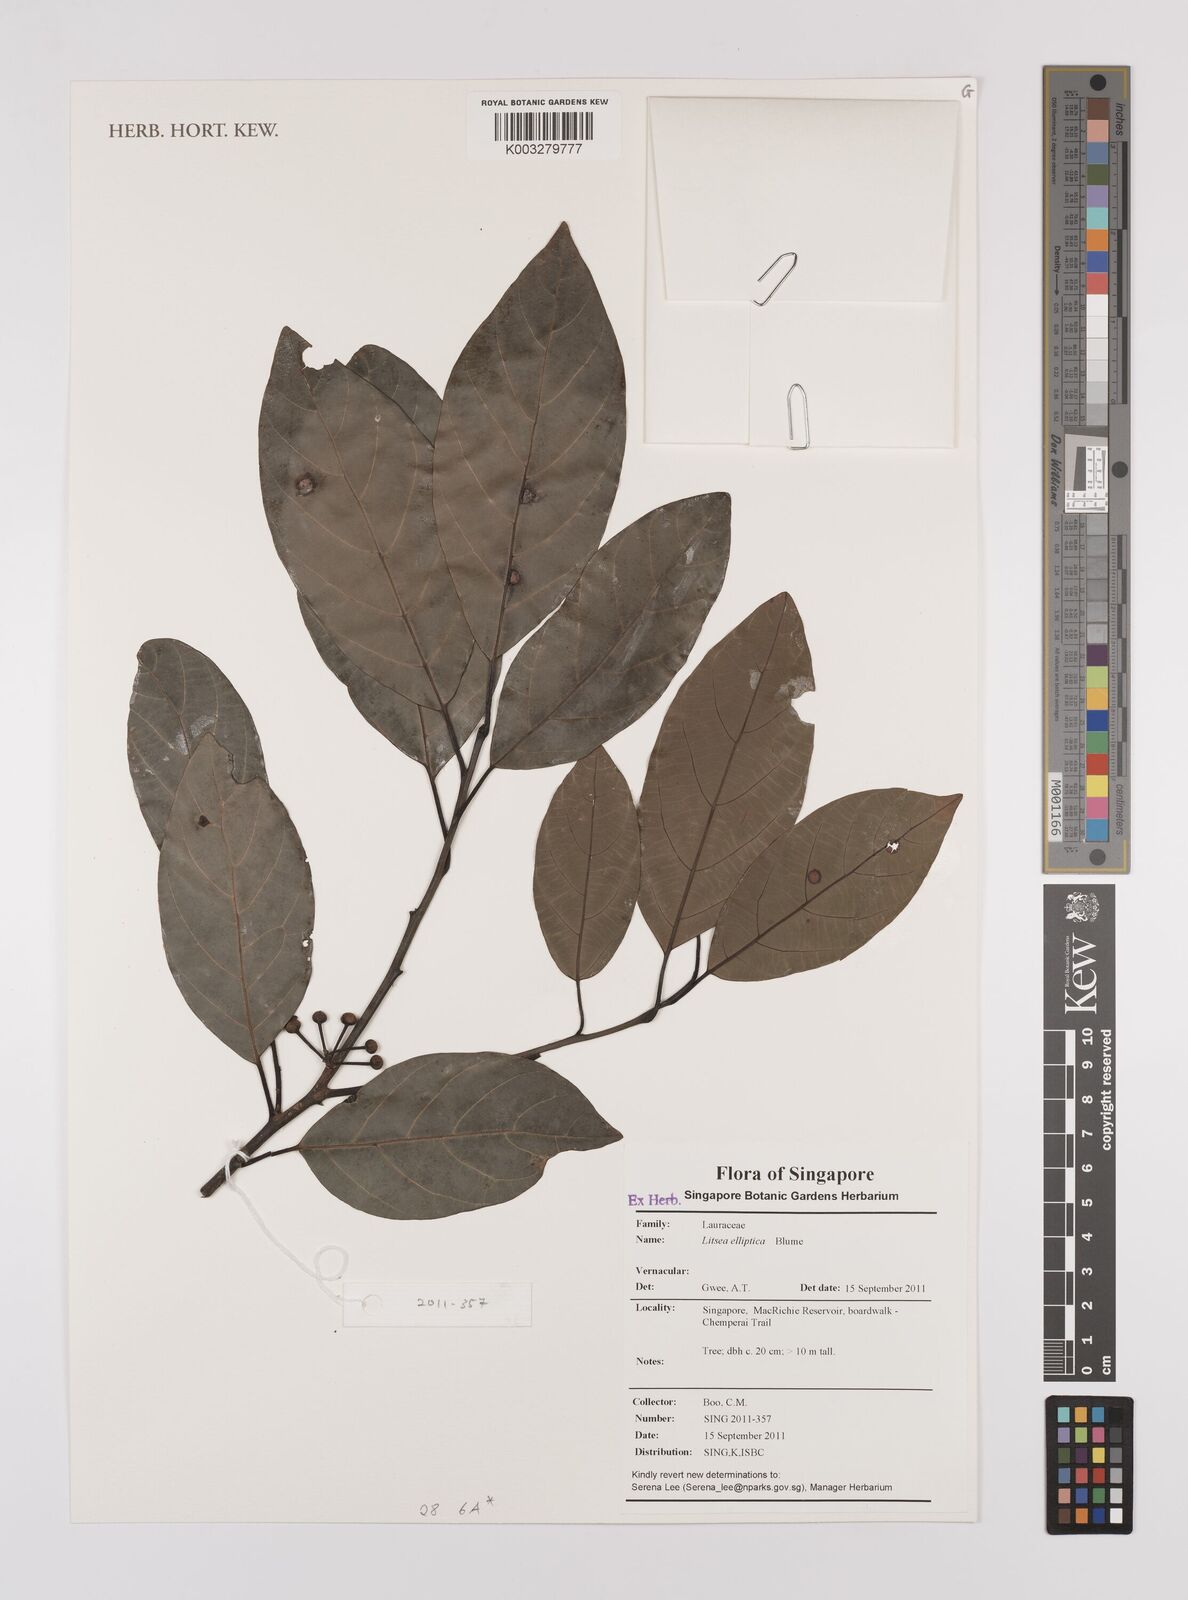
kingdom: Plantae
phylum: Tracheophyta
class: Magnoliopsida
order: Laurales
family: Lauraceae
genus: Litsea
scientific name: Litsea elliptica
